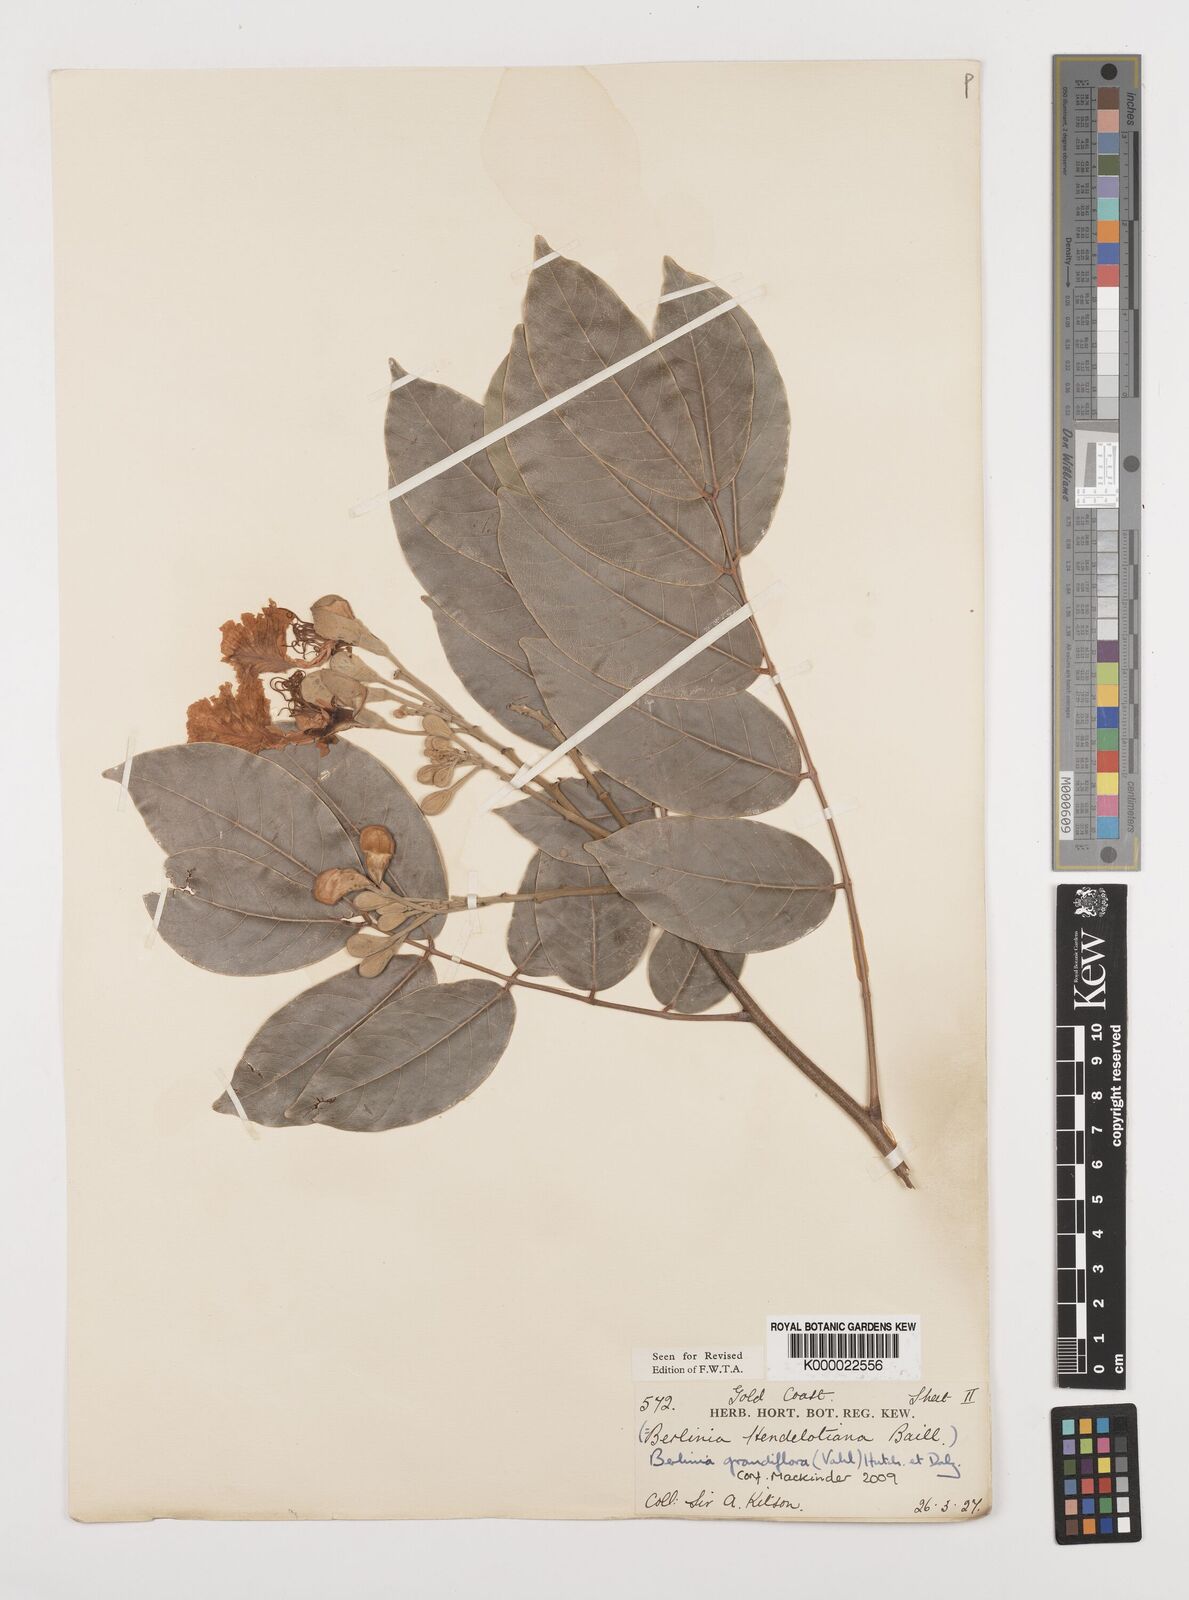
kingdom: Plantae
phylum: Tracheophyta
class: Magnoliopsida
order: Fabales
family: Fabaceae
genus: Berlinia
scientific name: Berlinia
